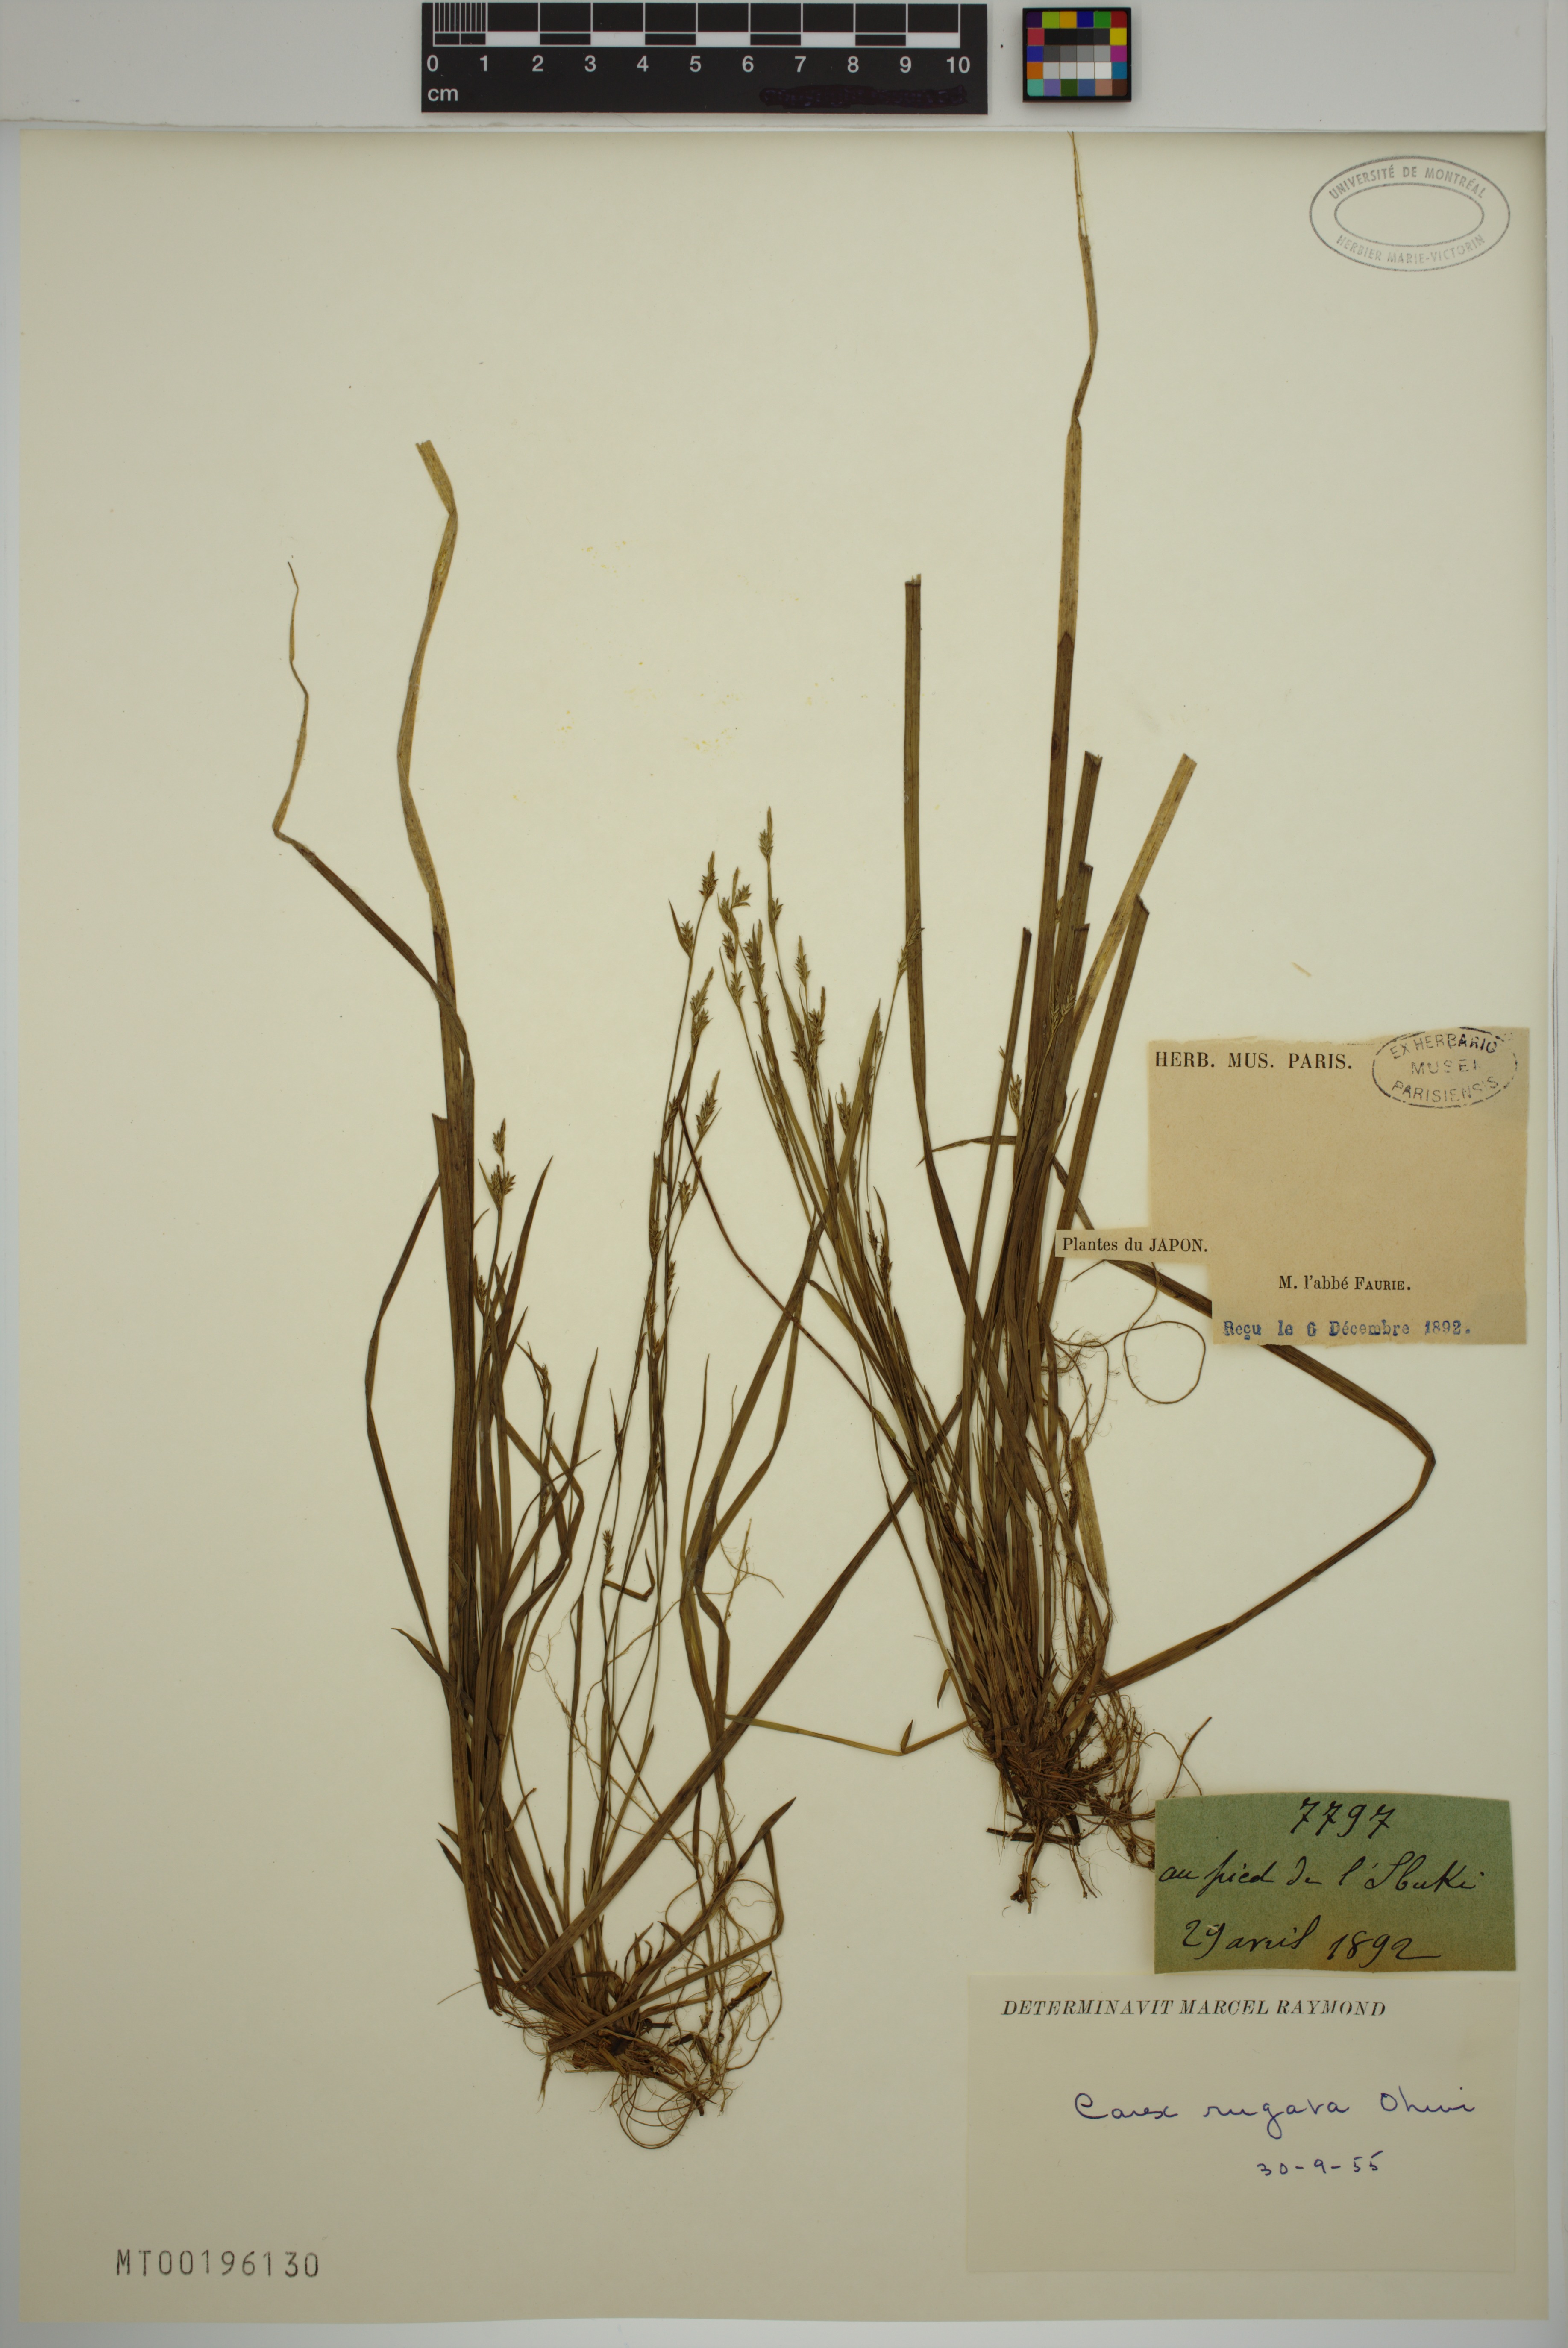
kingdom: Plantae
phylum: Tracheophyta
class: Liliopsida
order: Poales
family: Cyperaceae
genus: Carex
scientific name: Carex rugata
